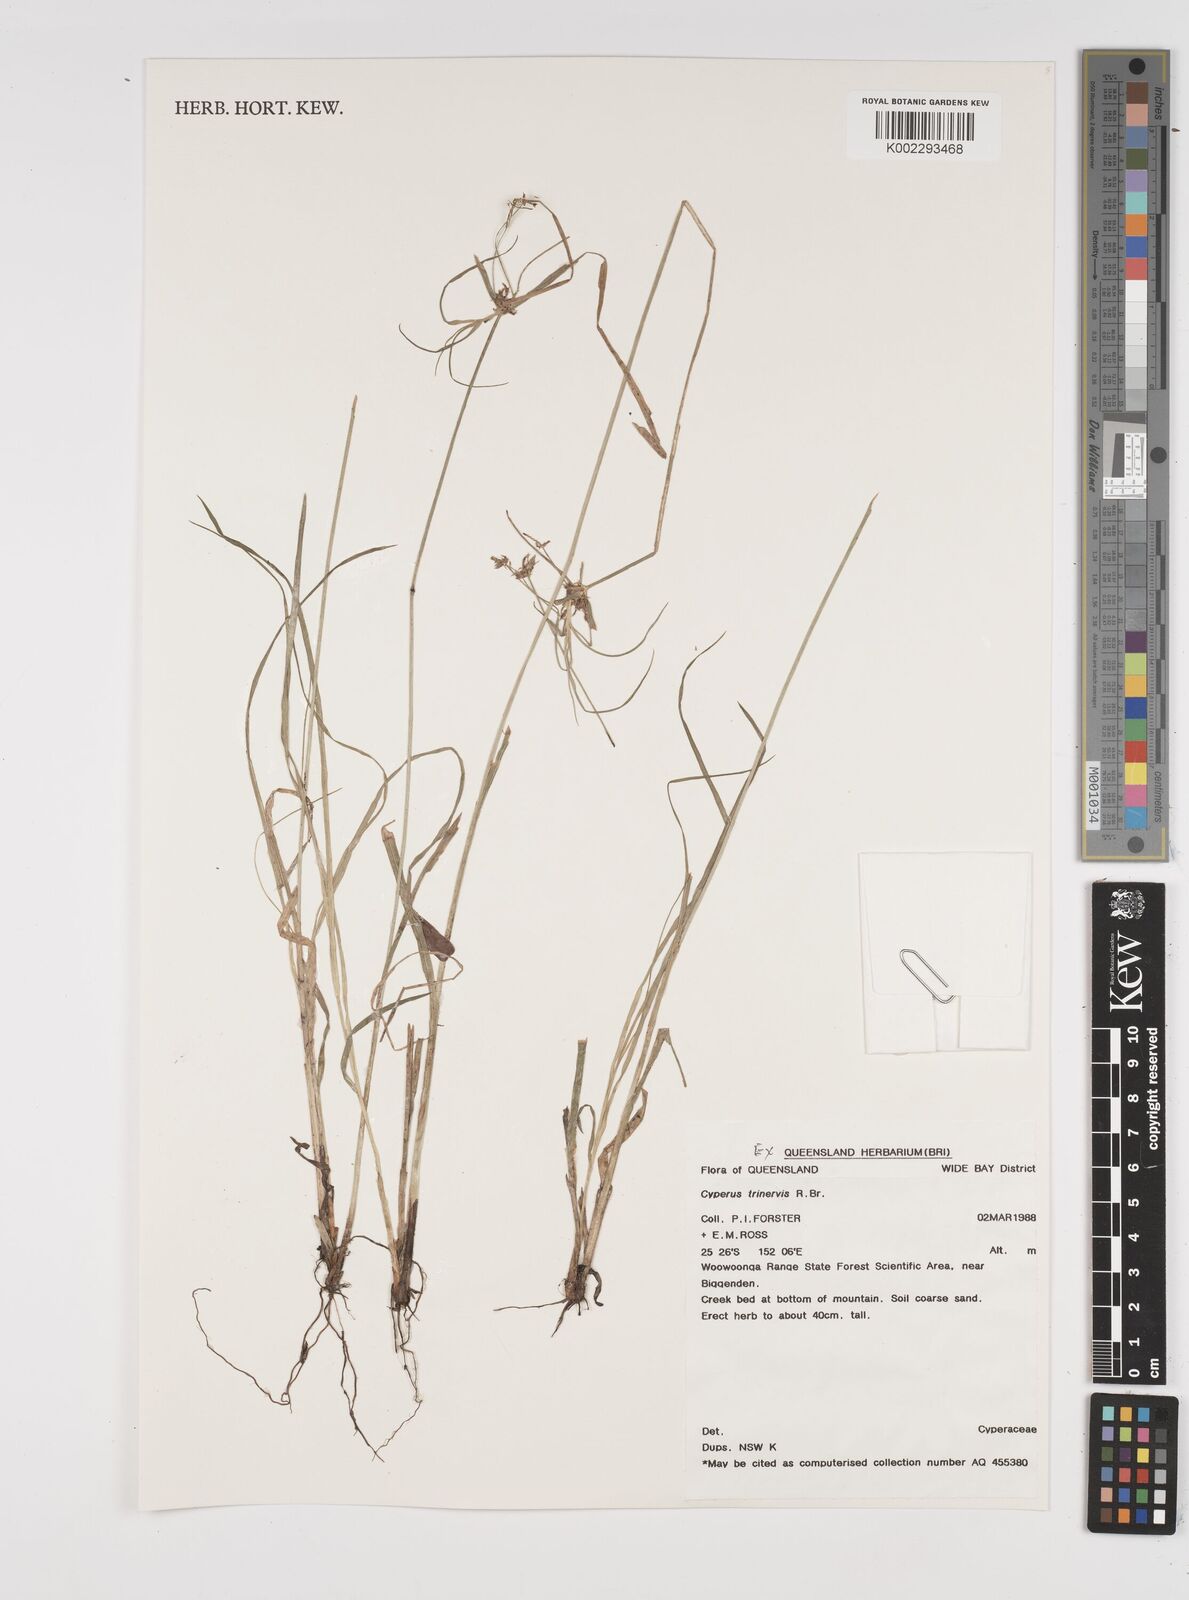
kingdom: Plantae
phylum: Tracheophyta
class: Liliopsida
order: Poales
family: Cyperaceae
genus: Cyperus
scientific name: Cyperus trinervis
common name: Australian flatsedge
